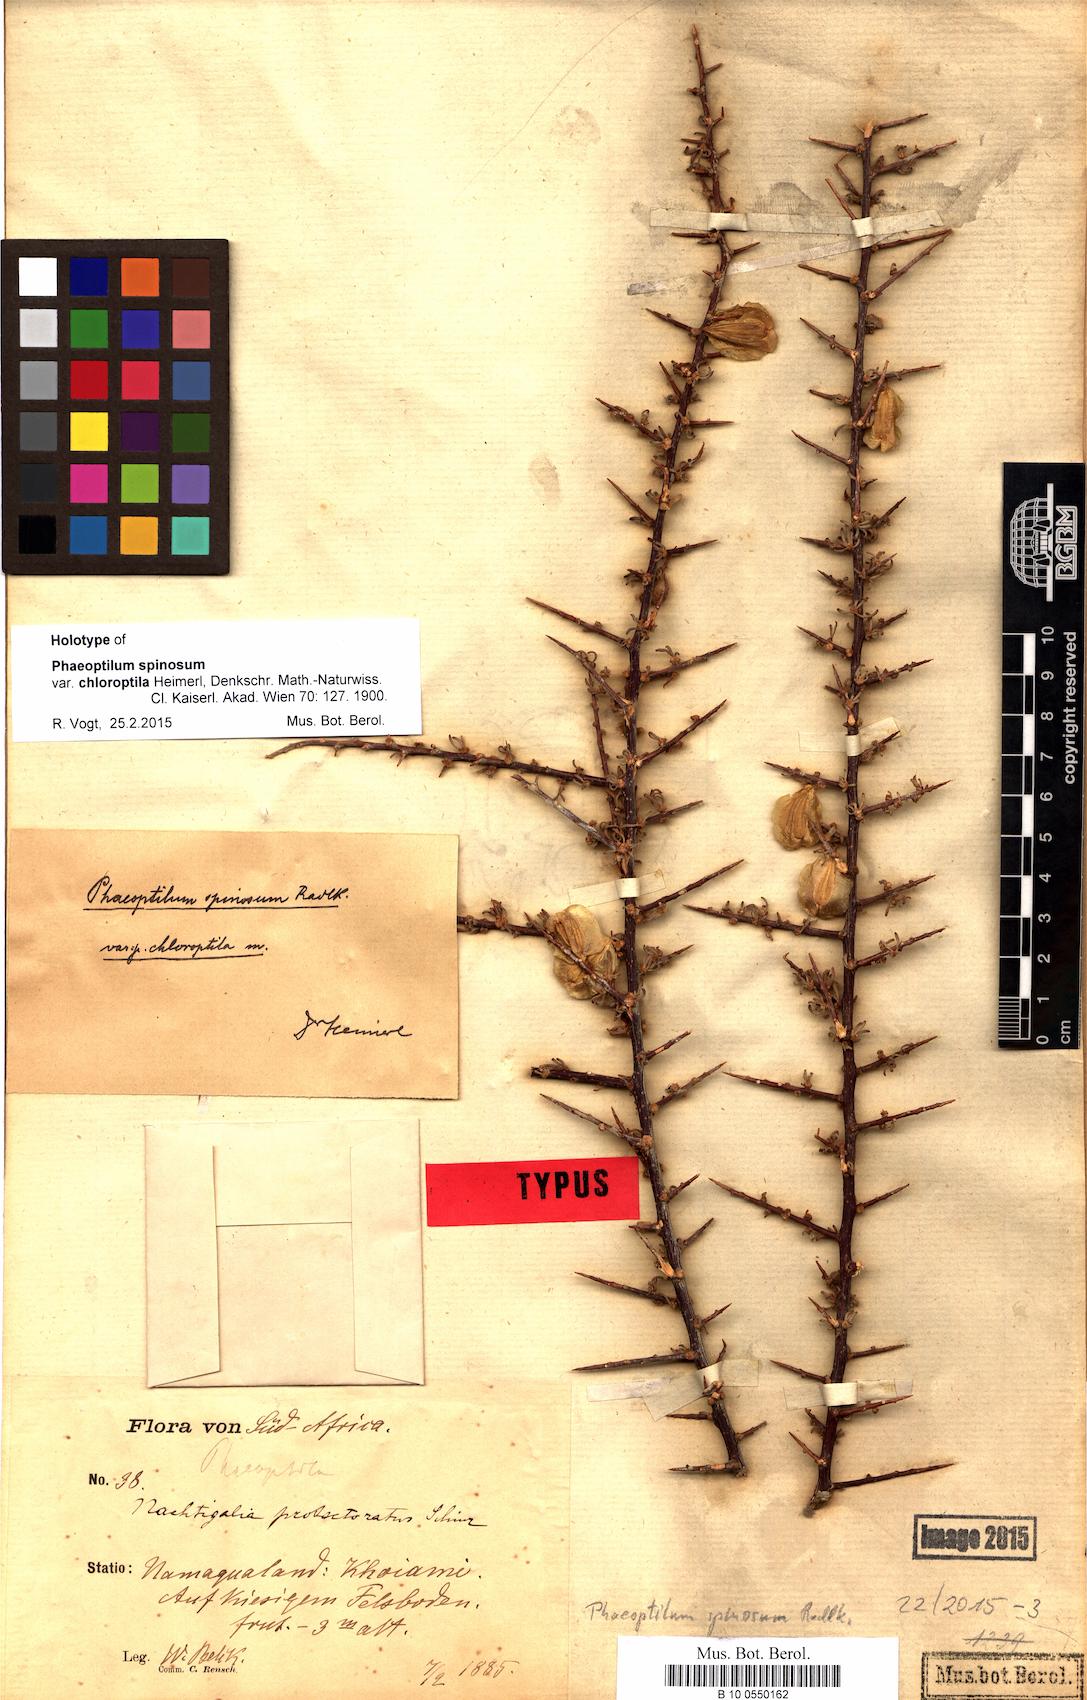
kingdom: Plantae
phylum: Tracheophyta
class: Magnoliopsida
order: Caryophyllales
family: Nyctaginaceae
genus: Phaeoptilum
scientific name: Phaeoptilum spinosum
